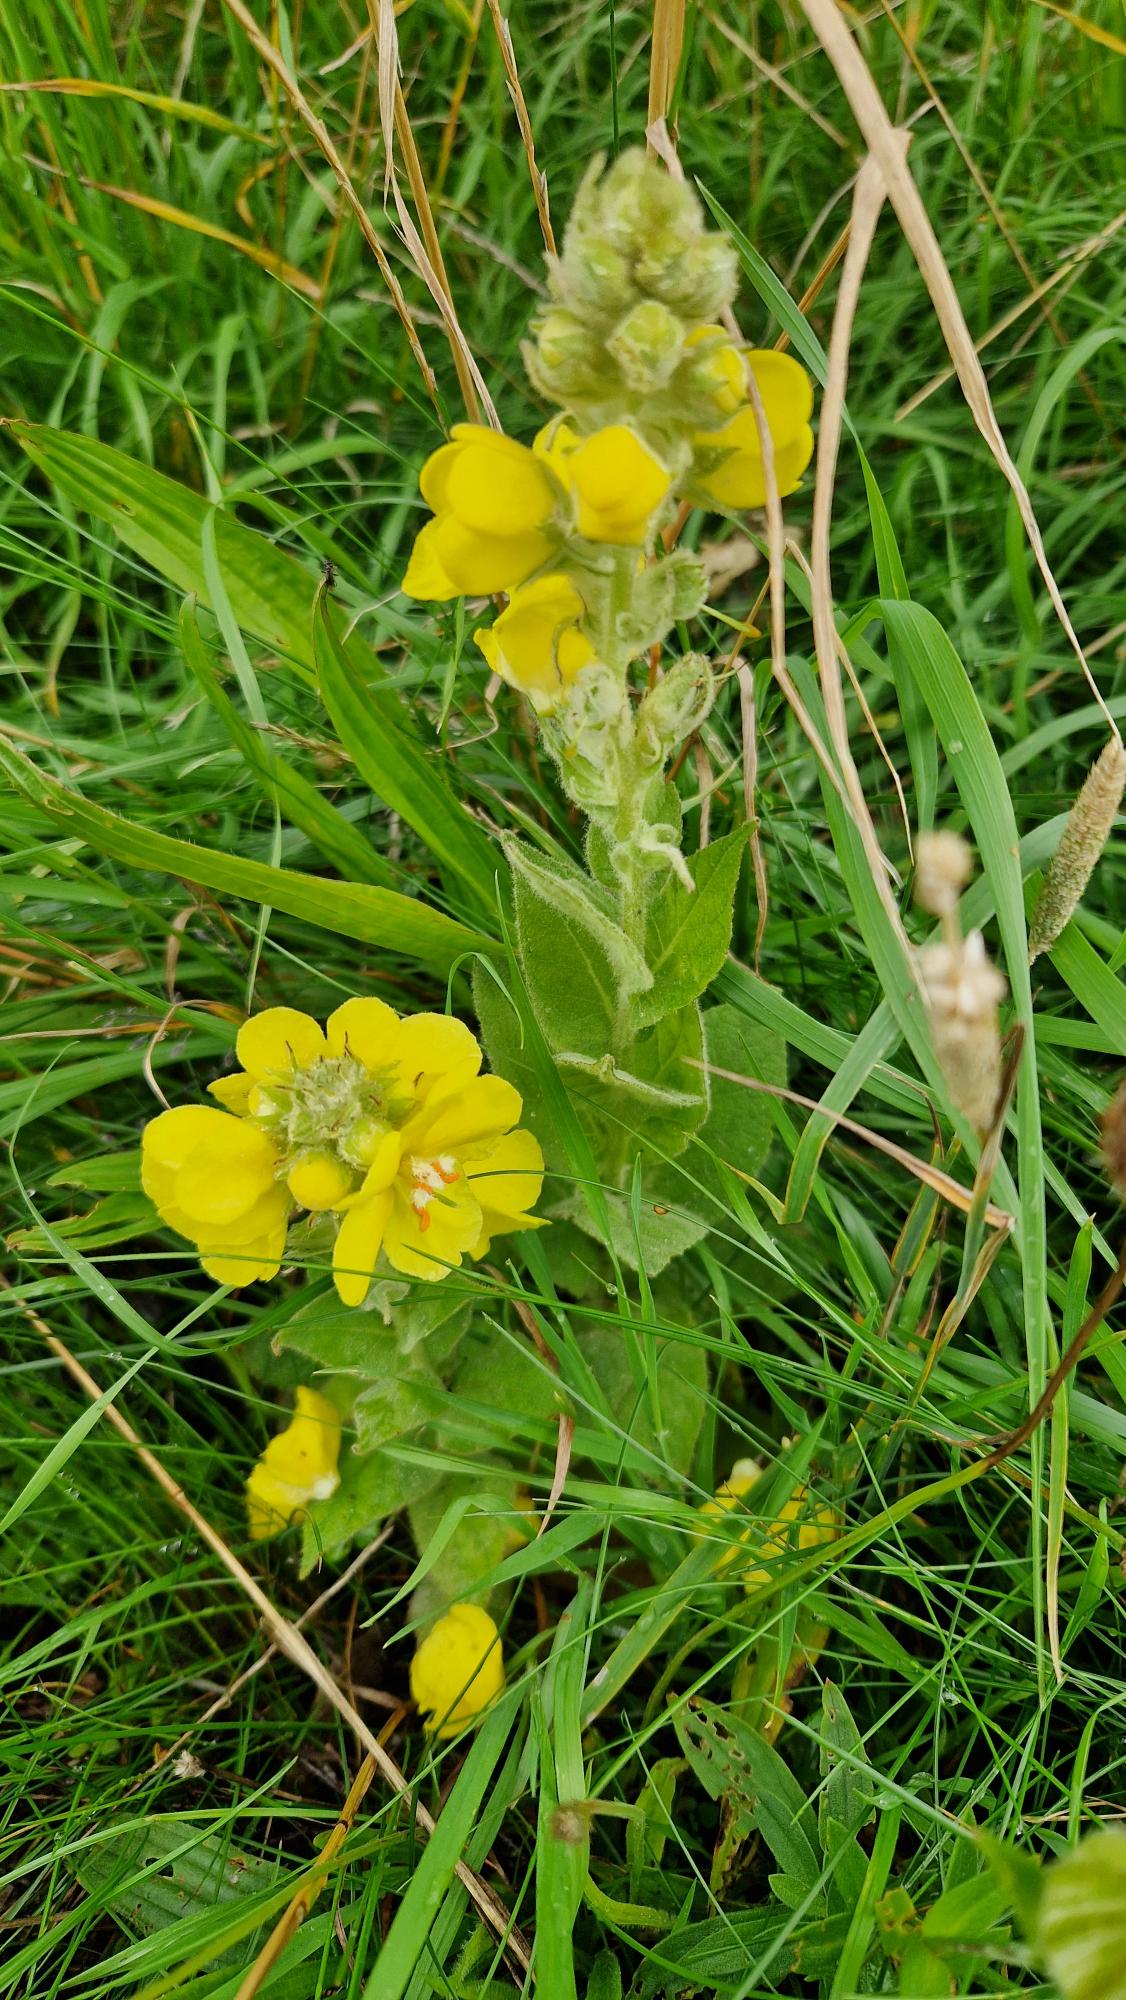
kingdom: Plantae
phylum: Tracheophyta
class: Magnoliopsida
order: Lamiales
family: Scrophulariaceae
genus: Verbascum
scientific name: Verbascum phlomoides
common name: Hjertebladet kongelys
